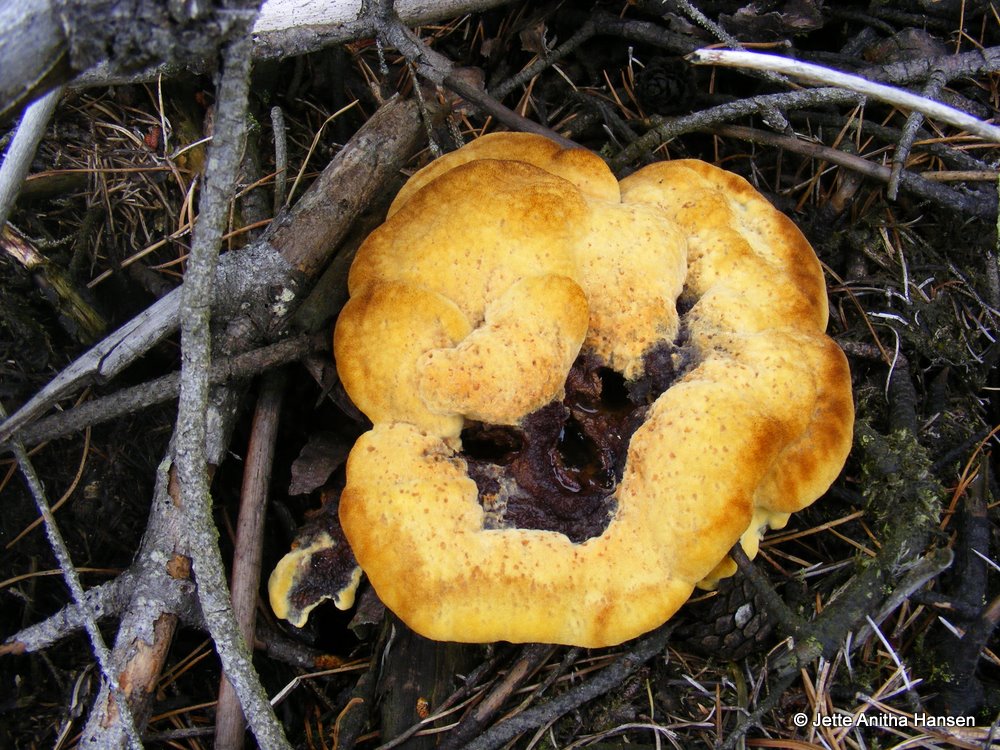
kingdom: Fungi
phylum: Basidiomycota
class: Agaricomycetes
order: Polyporales
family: Laetiporaceae
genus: Phaeolus
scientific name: Phaeolus schweinitzii
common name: brunporesvamp
